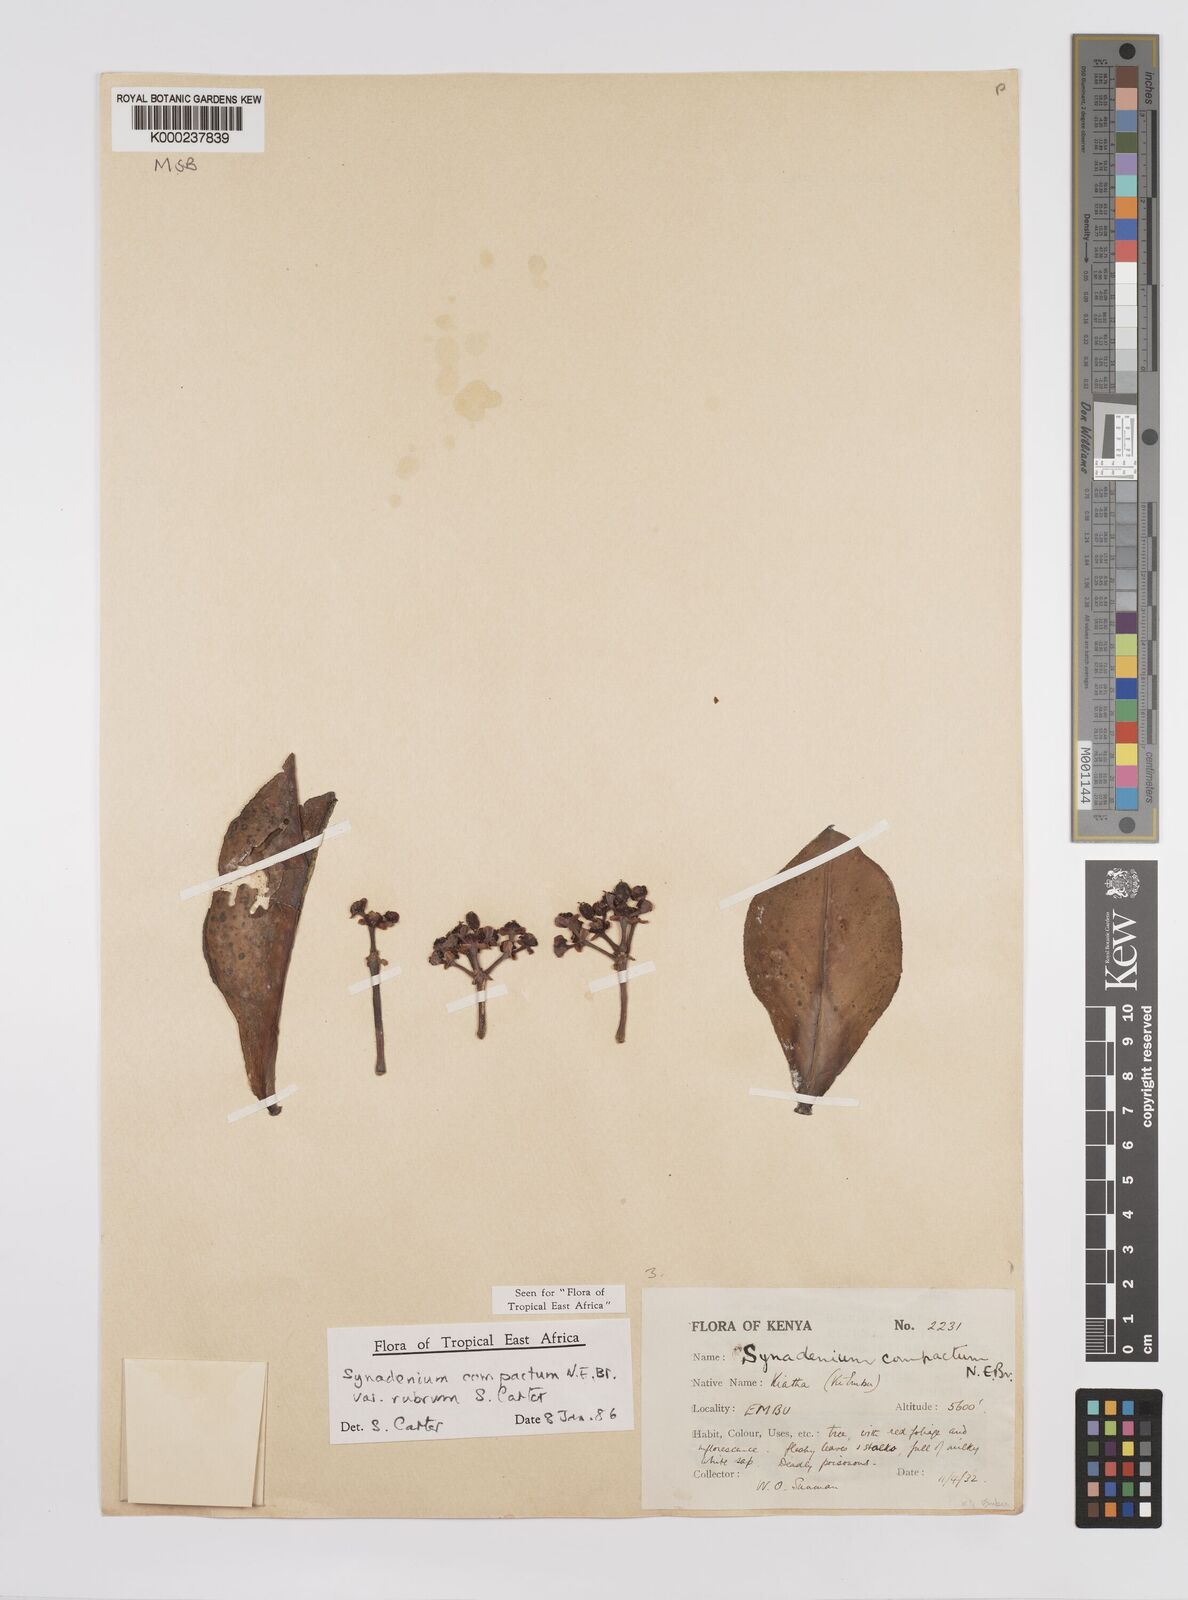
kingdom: Plantae
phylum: Tracheophyta
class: Magnoliopsida
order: Malpighiales
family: Euphorbiaceae
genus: Euphorbia
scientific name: Euphorbia bicompacta
